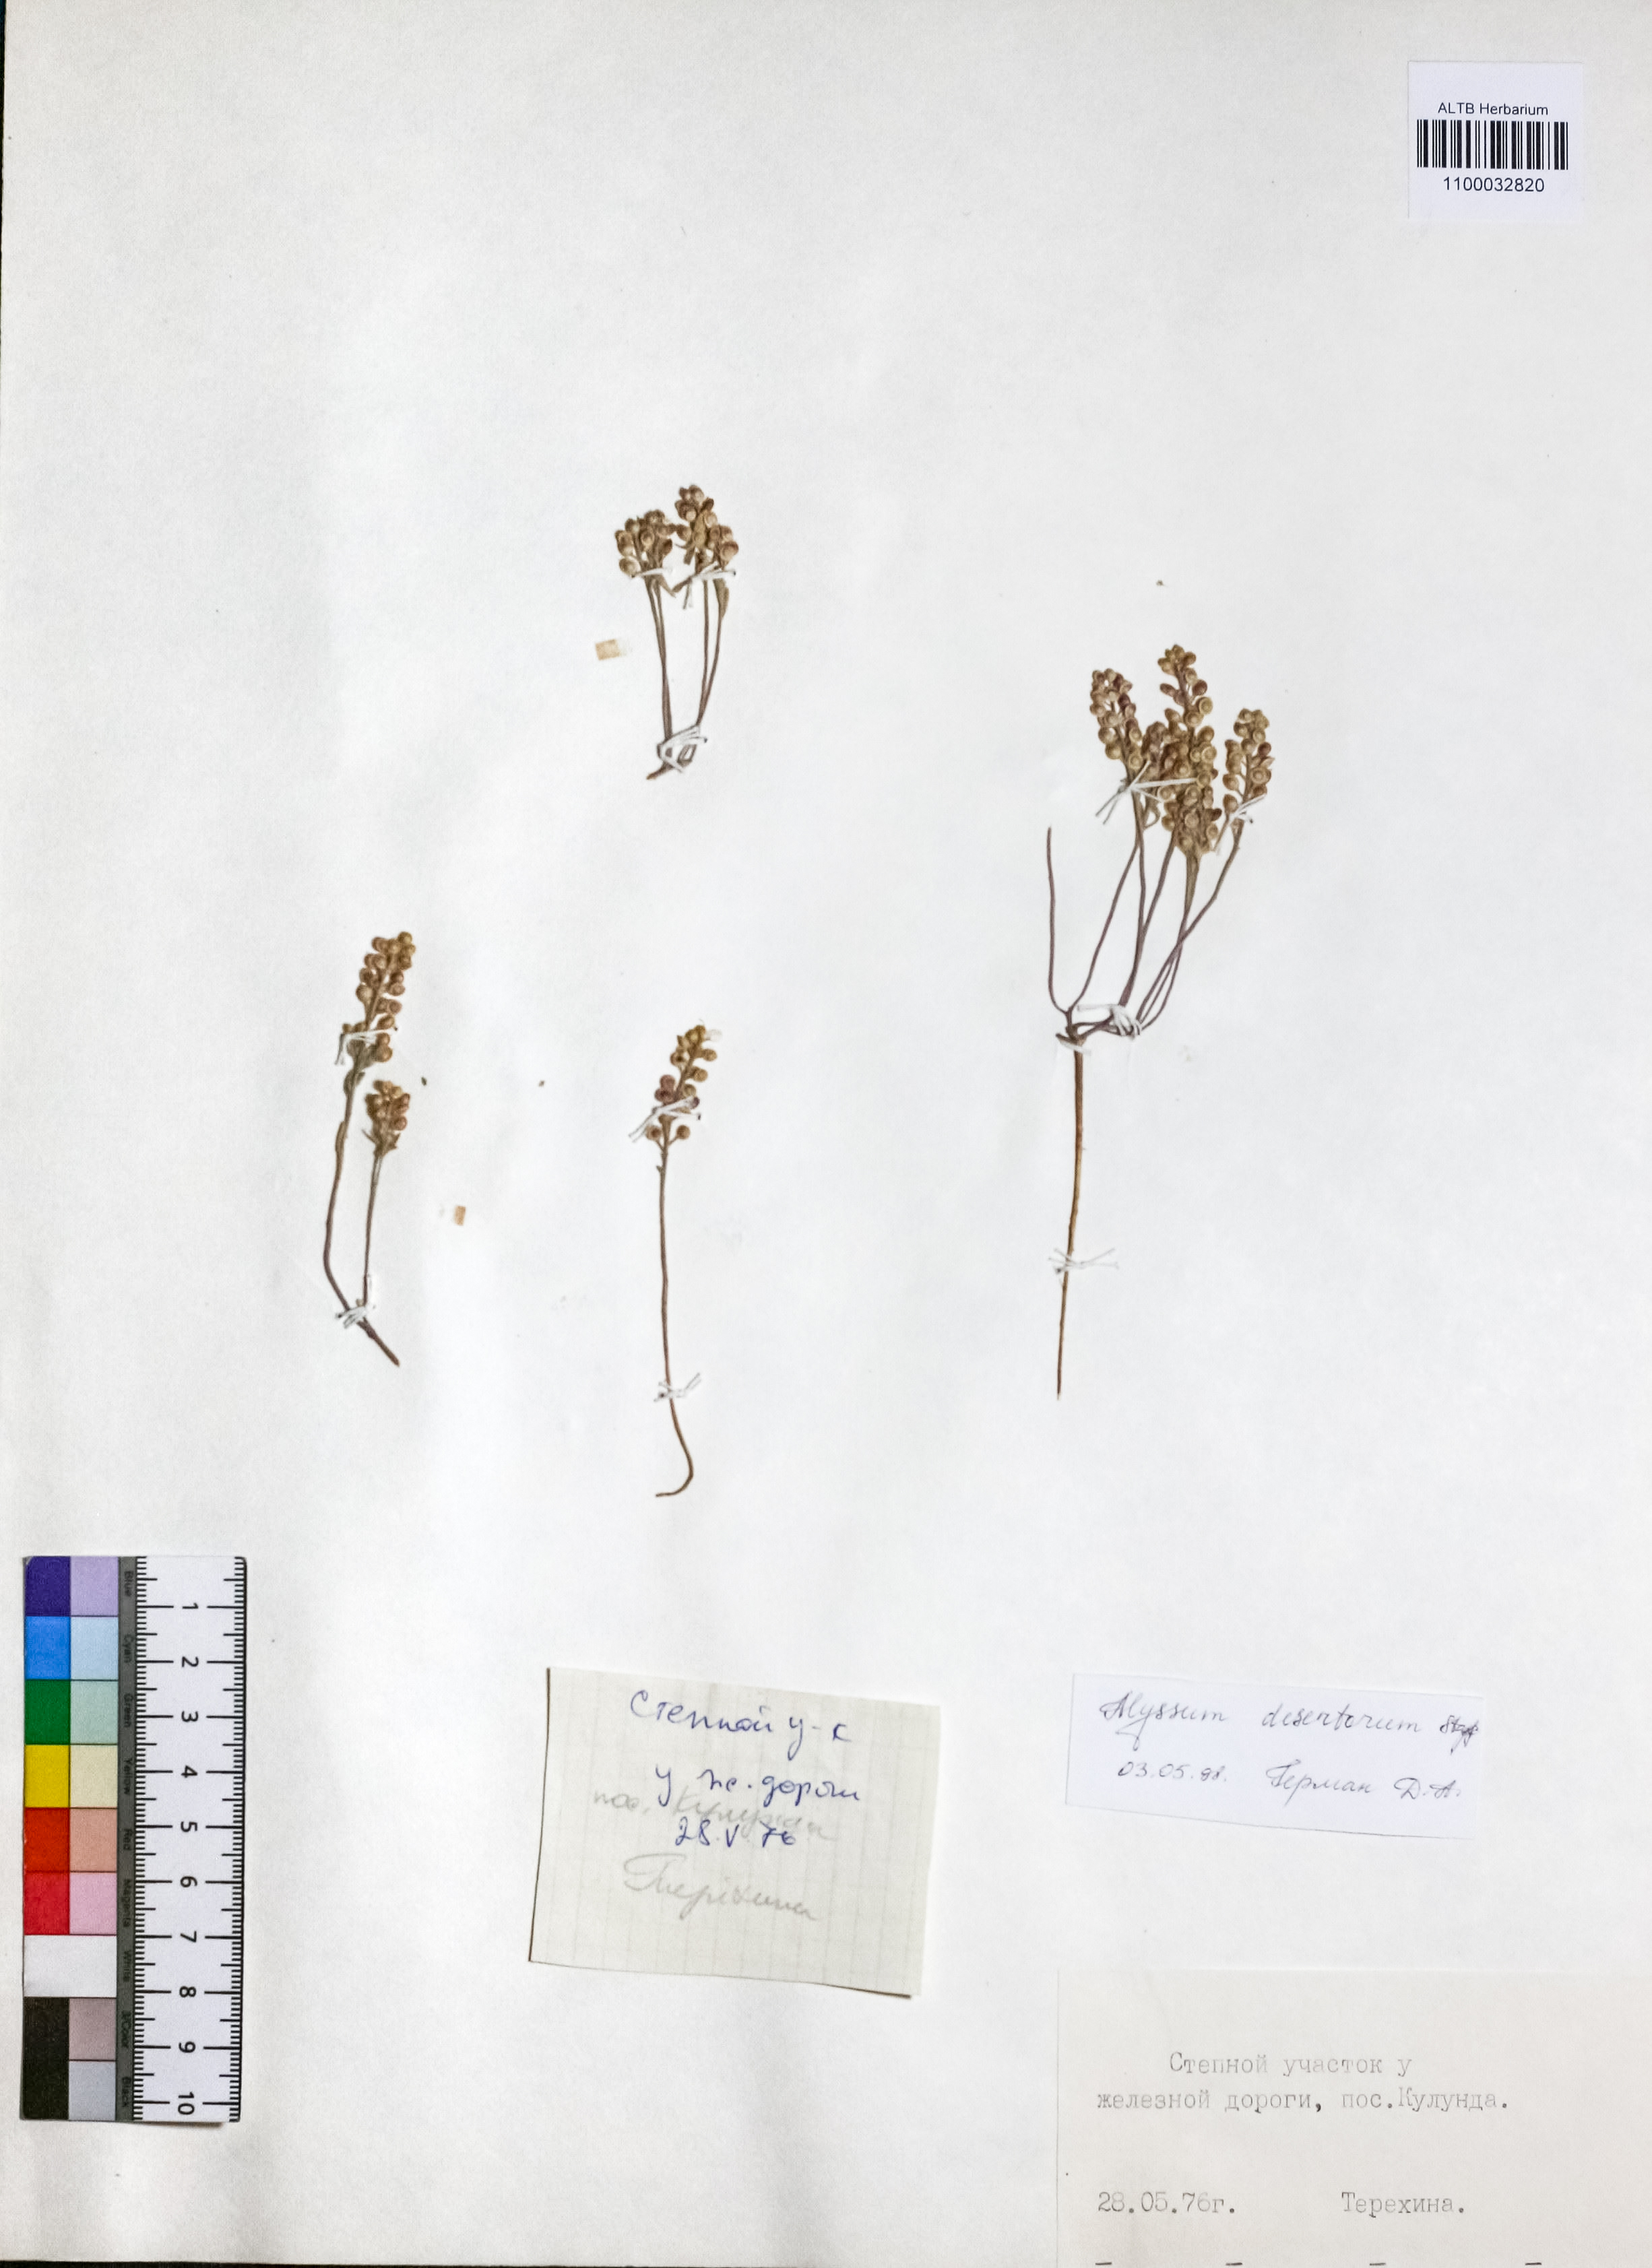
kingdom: Plantae
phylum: Tracheophyta
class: Magnoliopsida
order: Brassicales
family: Brassicaceae
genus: Alyssum
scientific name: Alyssum turkestanicum
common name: Desert alyssum
